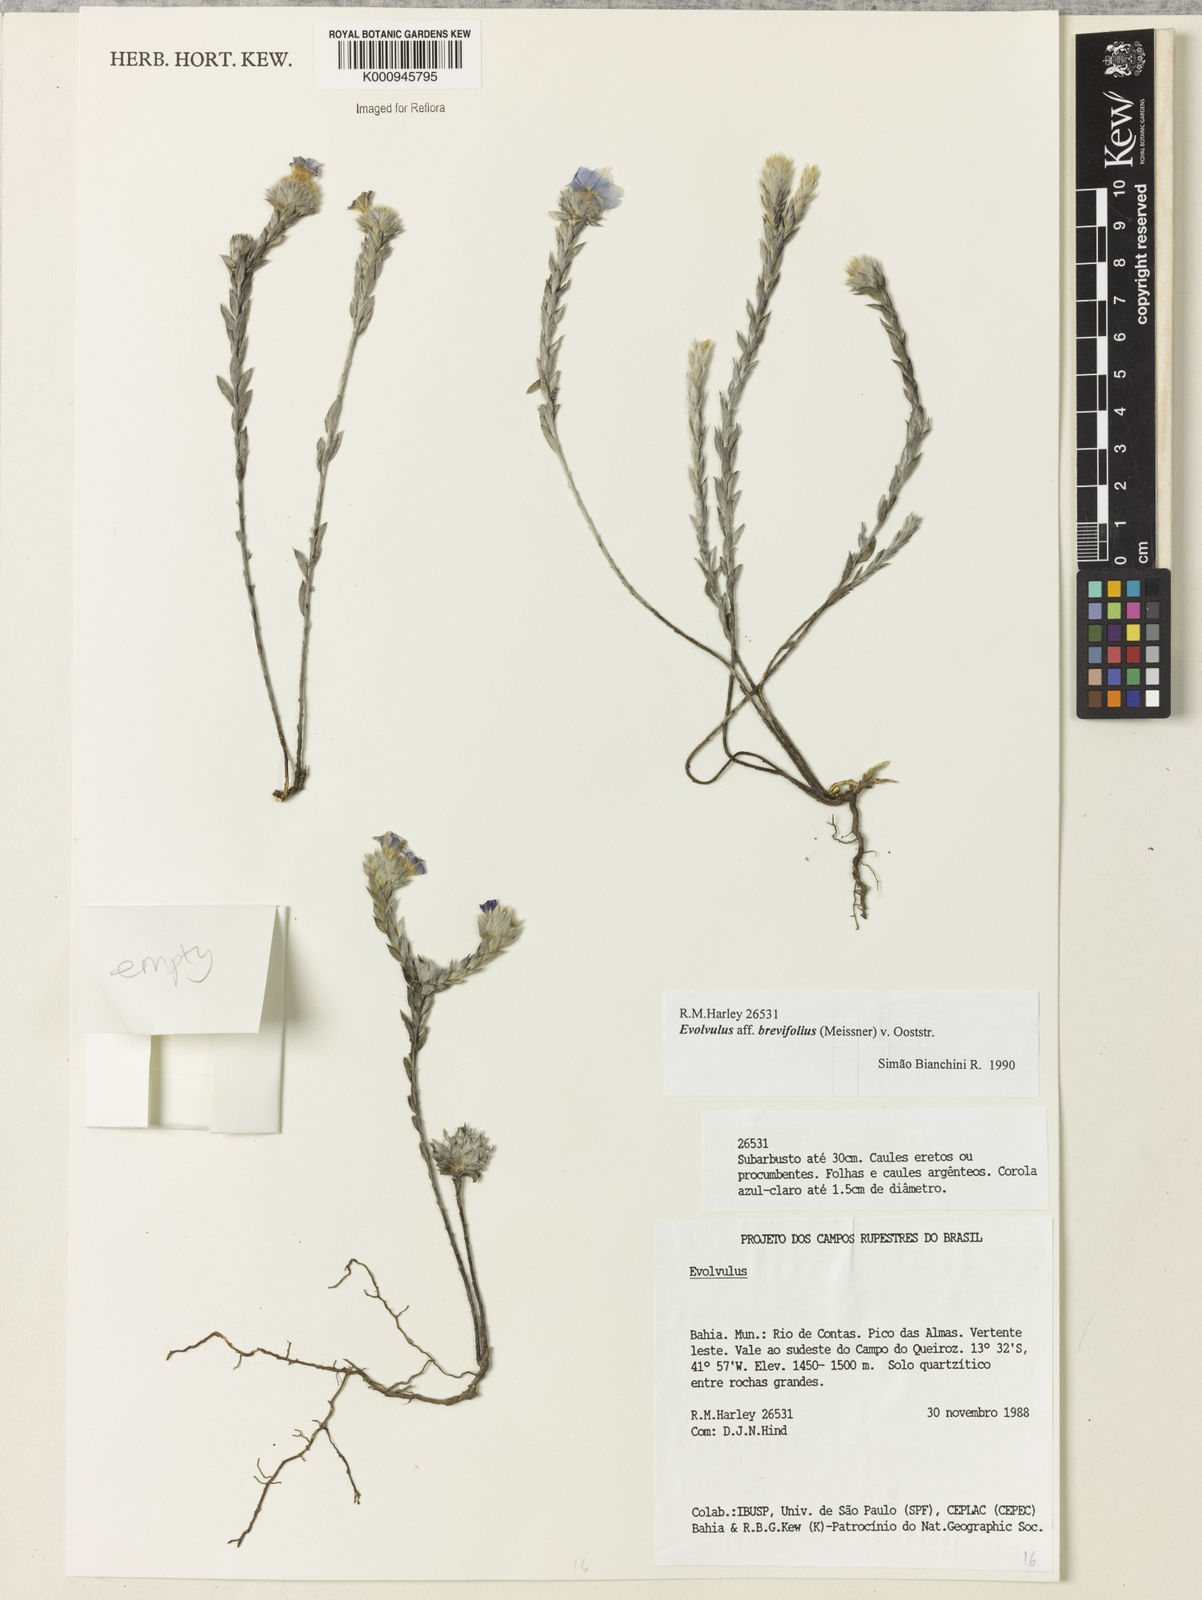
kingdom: Plantae
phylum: Tracheophyta
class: Magnoliopsida
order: Solanales
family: Convolvulaceae
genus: Evolvulus
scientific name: Evolvulus brevifolius
